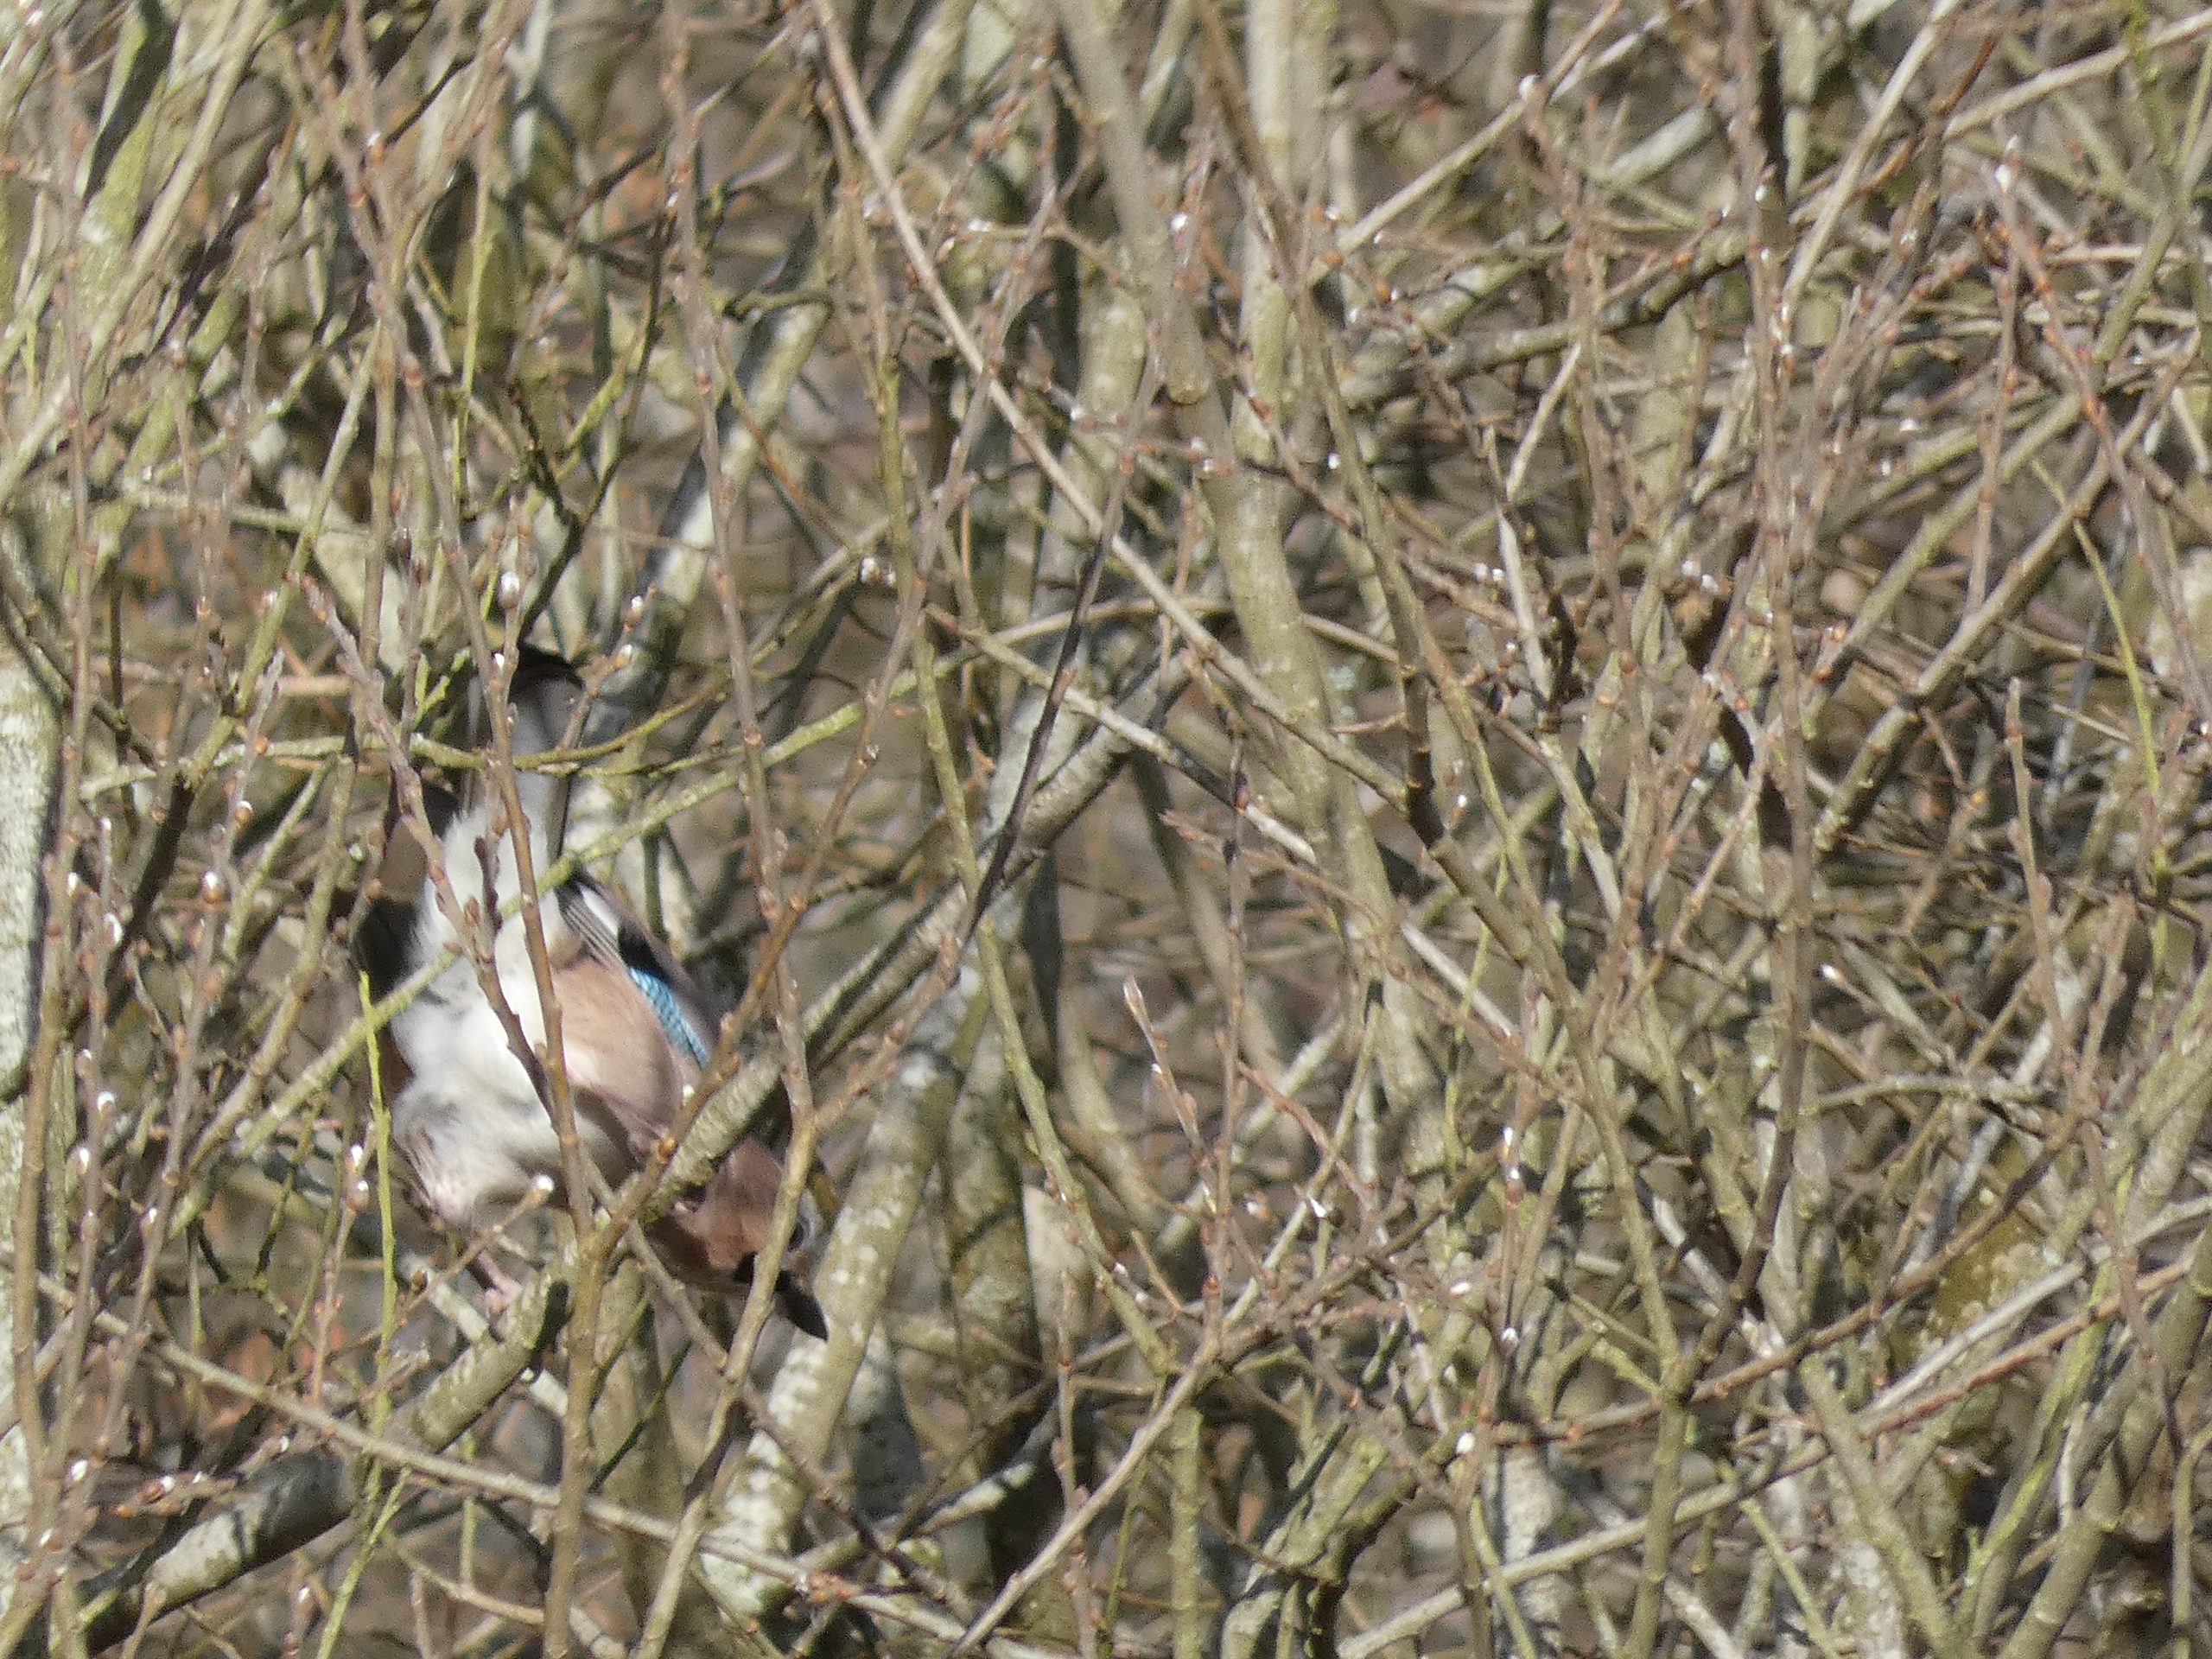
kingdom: Animalia
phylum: Chordata
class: Aves
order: Passeriformes
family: Corvidae
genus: Garrulus
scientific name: Garrulus glandarius
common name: Skovskade
